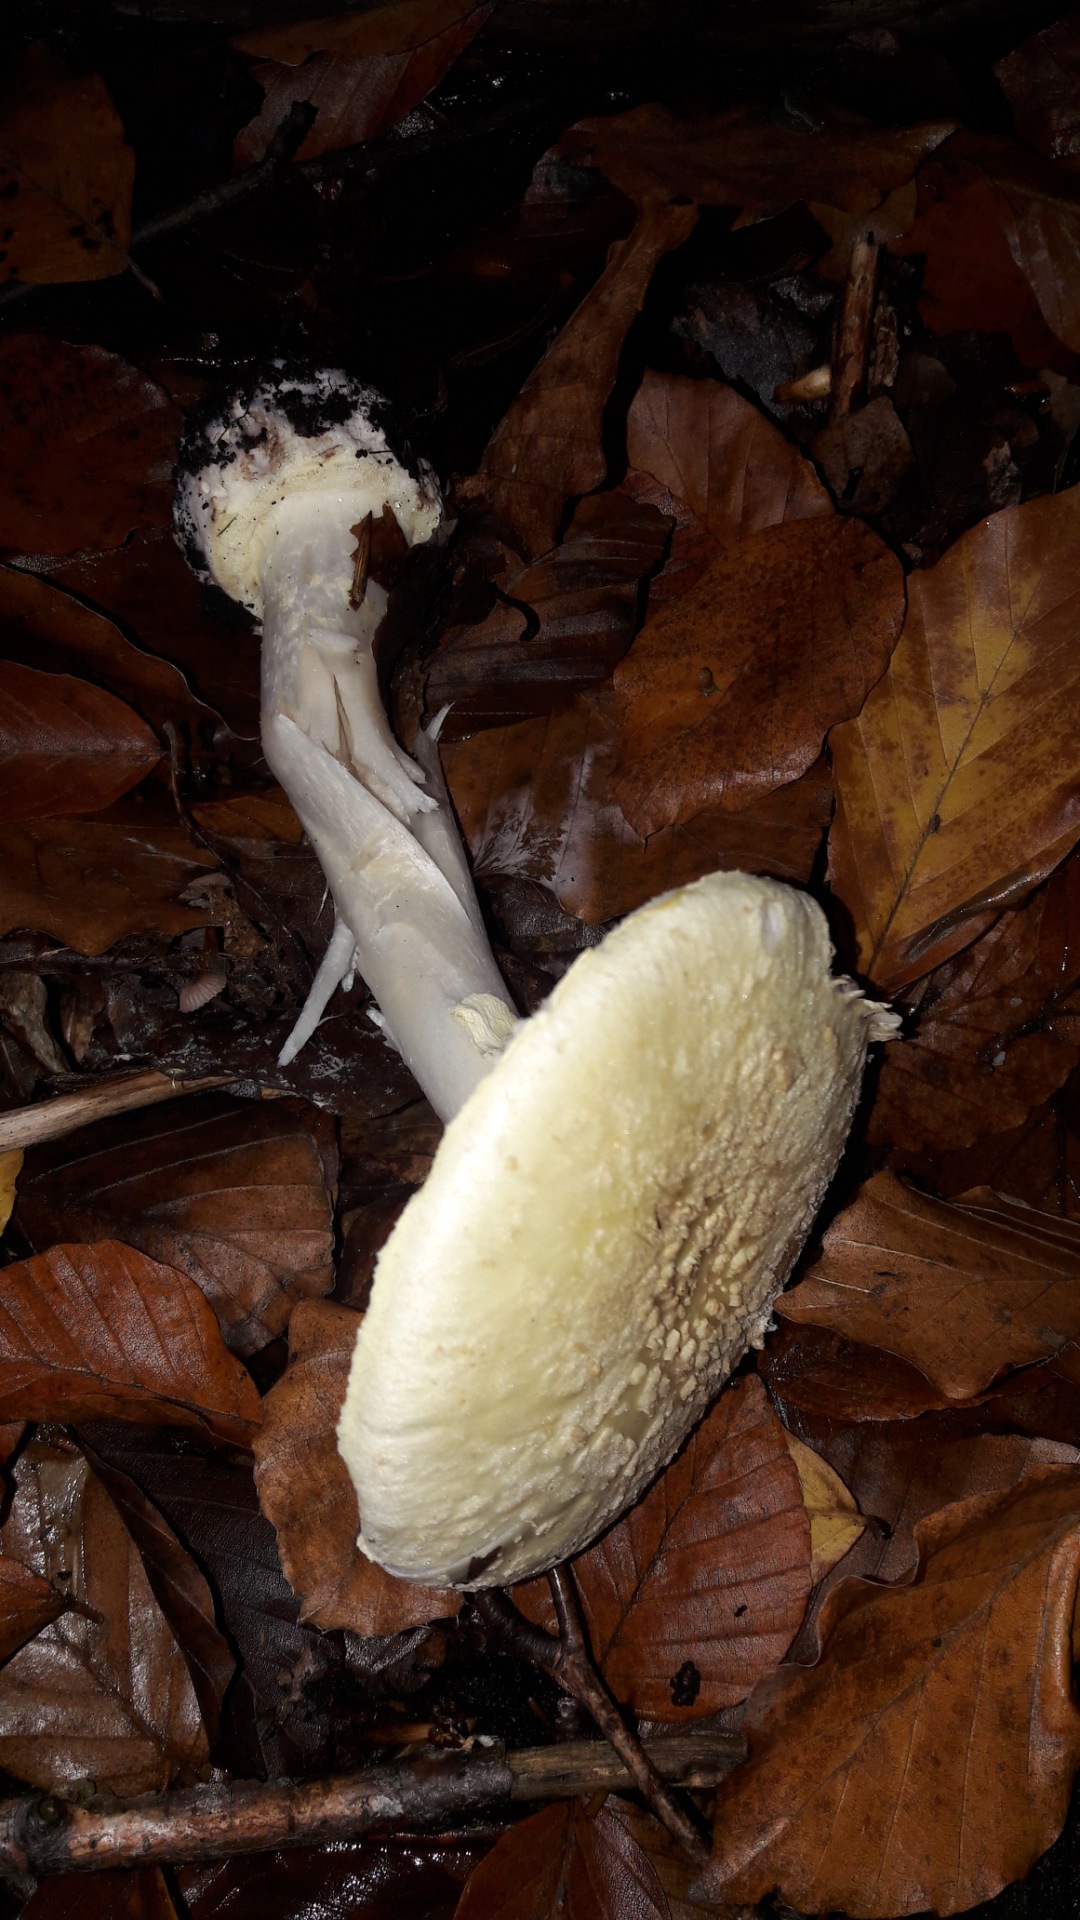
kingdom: Fungi
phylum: Basidiomycota
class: Agaricomycetes
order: Agaricales
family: Amanitaceae
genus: Amanita
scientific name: Amanita citrina
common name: kugleknoldet fluesvamp
